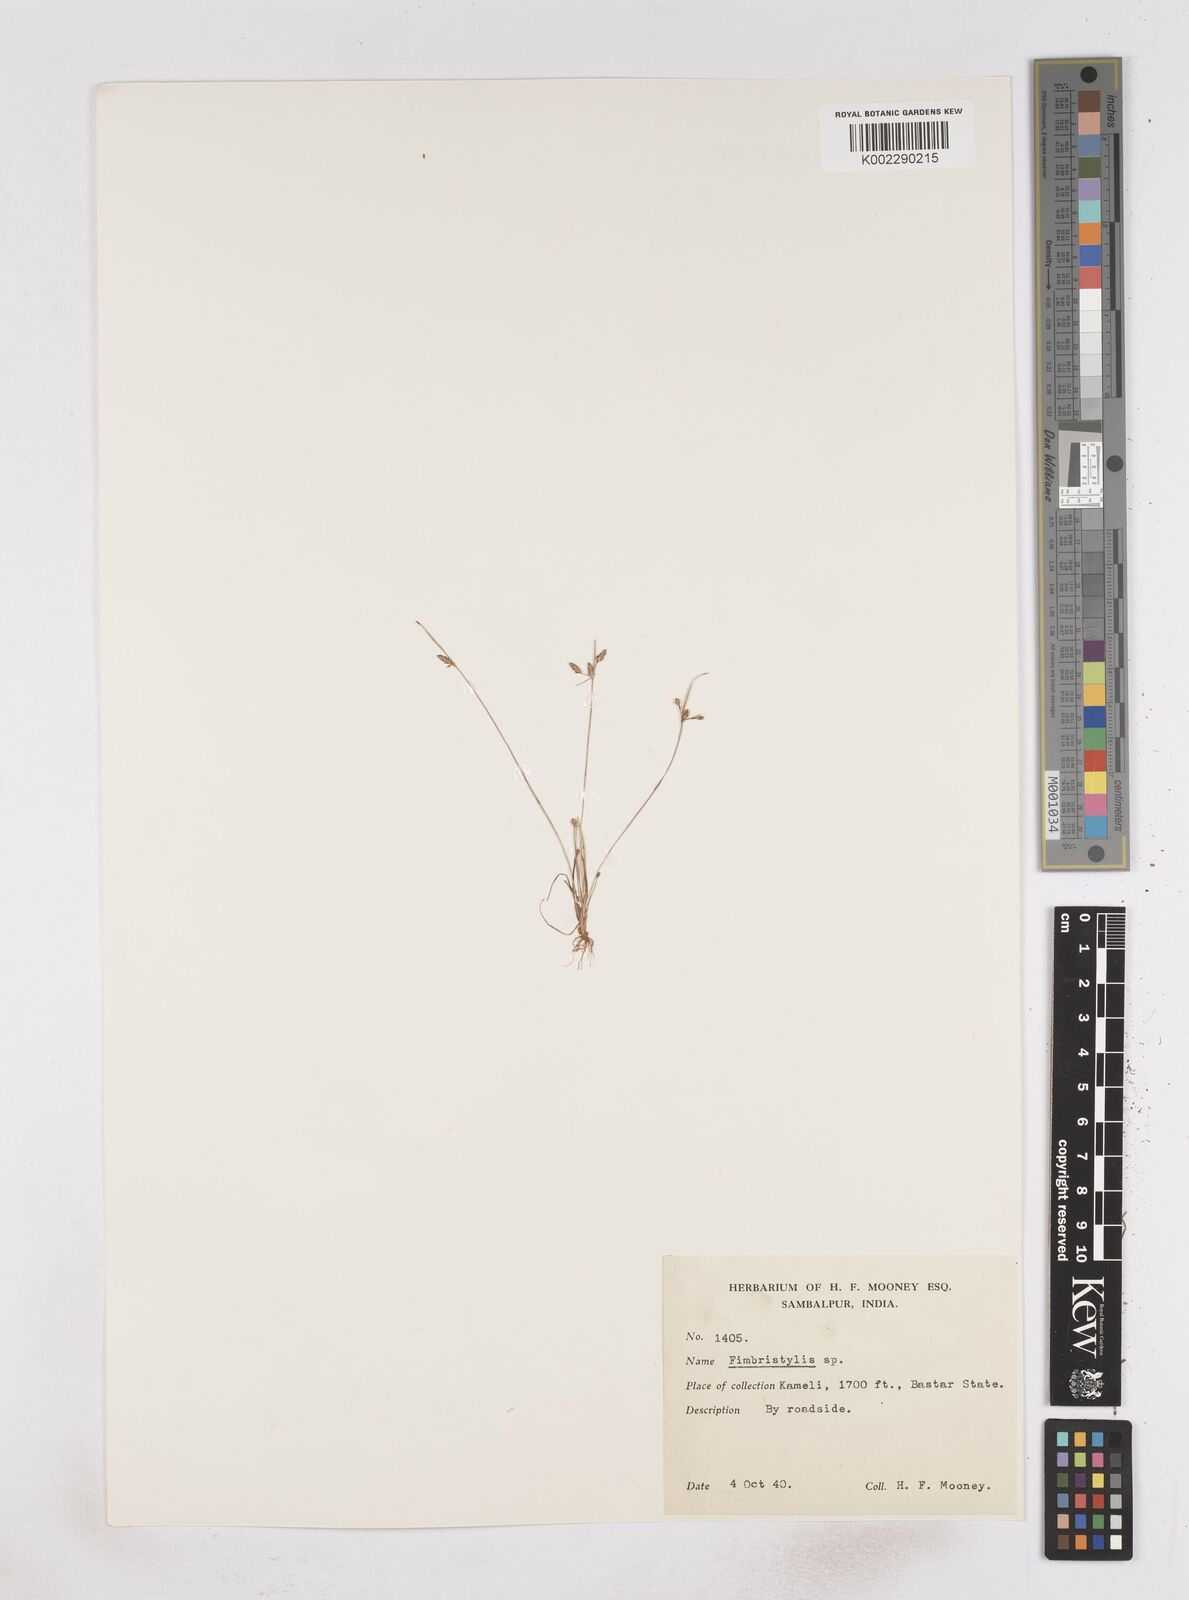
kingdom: Plantae
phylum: Tracheophyta
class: Liliopsida
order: Poales
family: Cyperaceae
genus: Fimbristylis
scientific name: Fimbristylis
